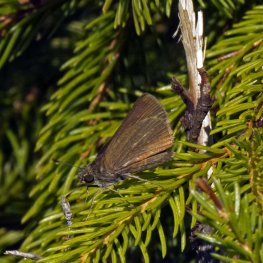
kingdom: Animalia
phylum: Arthropoda
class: Insecta
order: Lepidoptera
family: Hesperiidae
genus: Euphyes
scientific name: Euphyes vestris
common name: Dun Skipper
